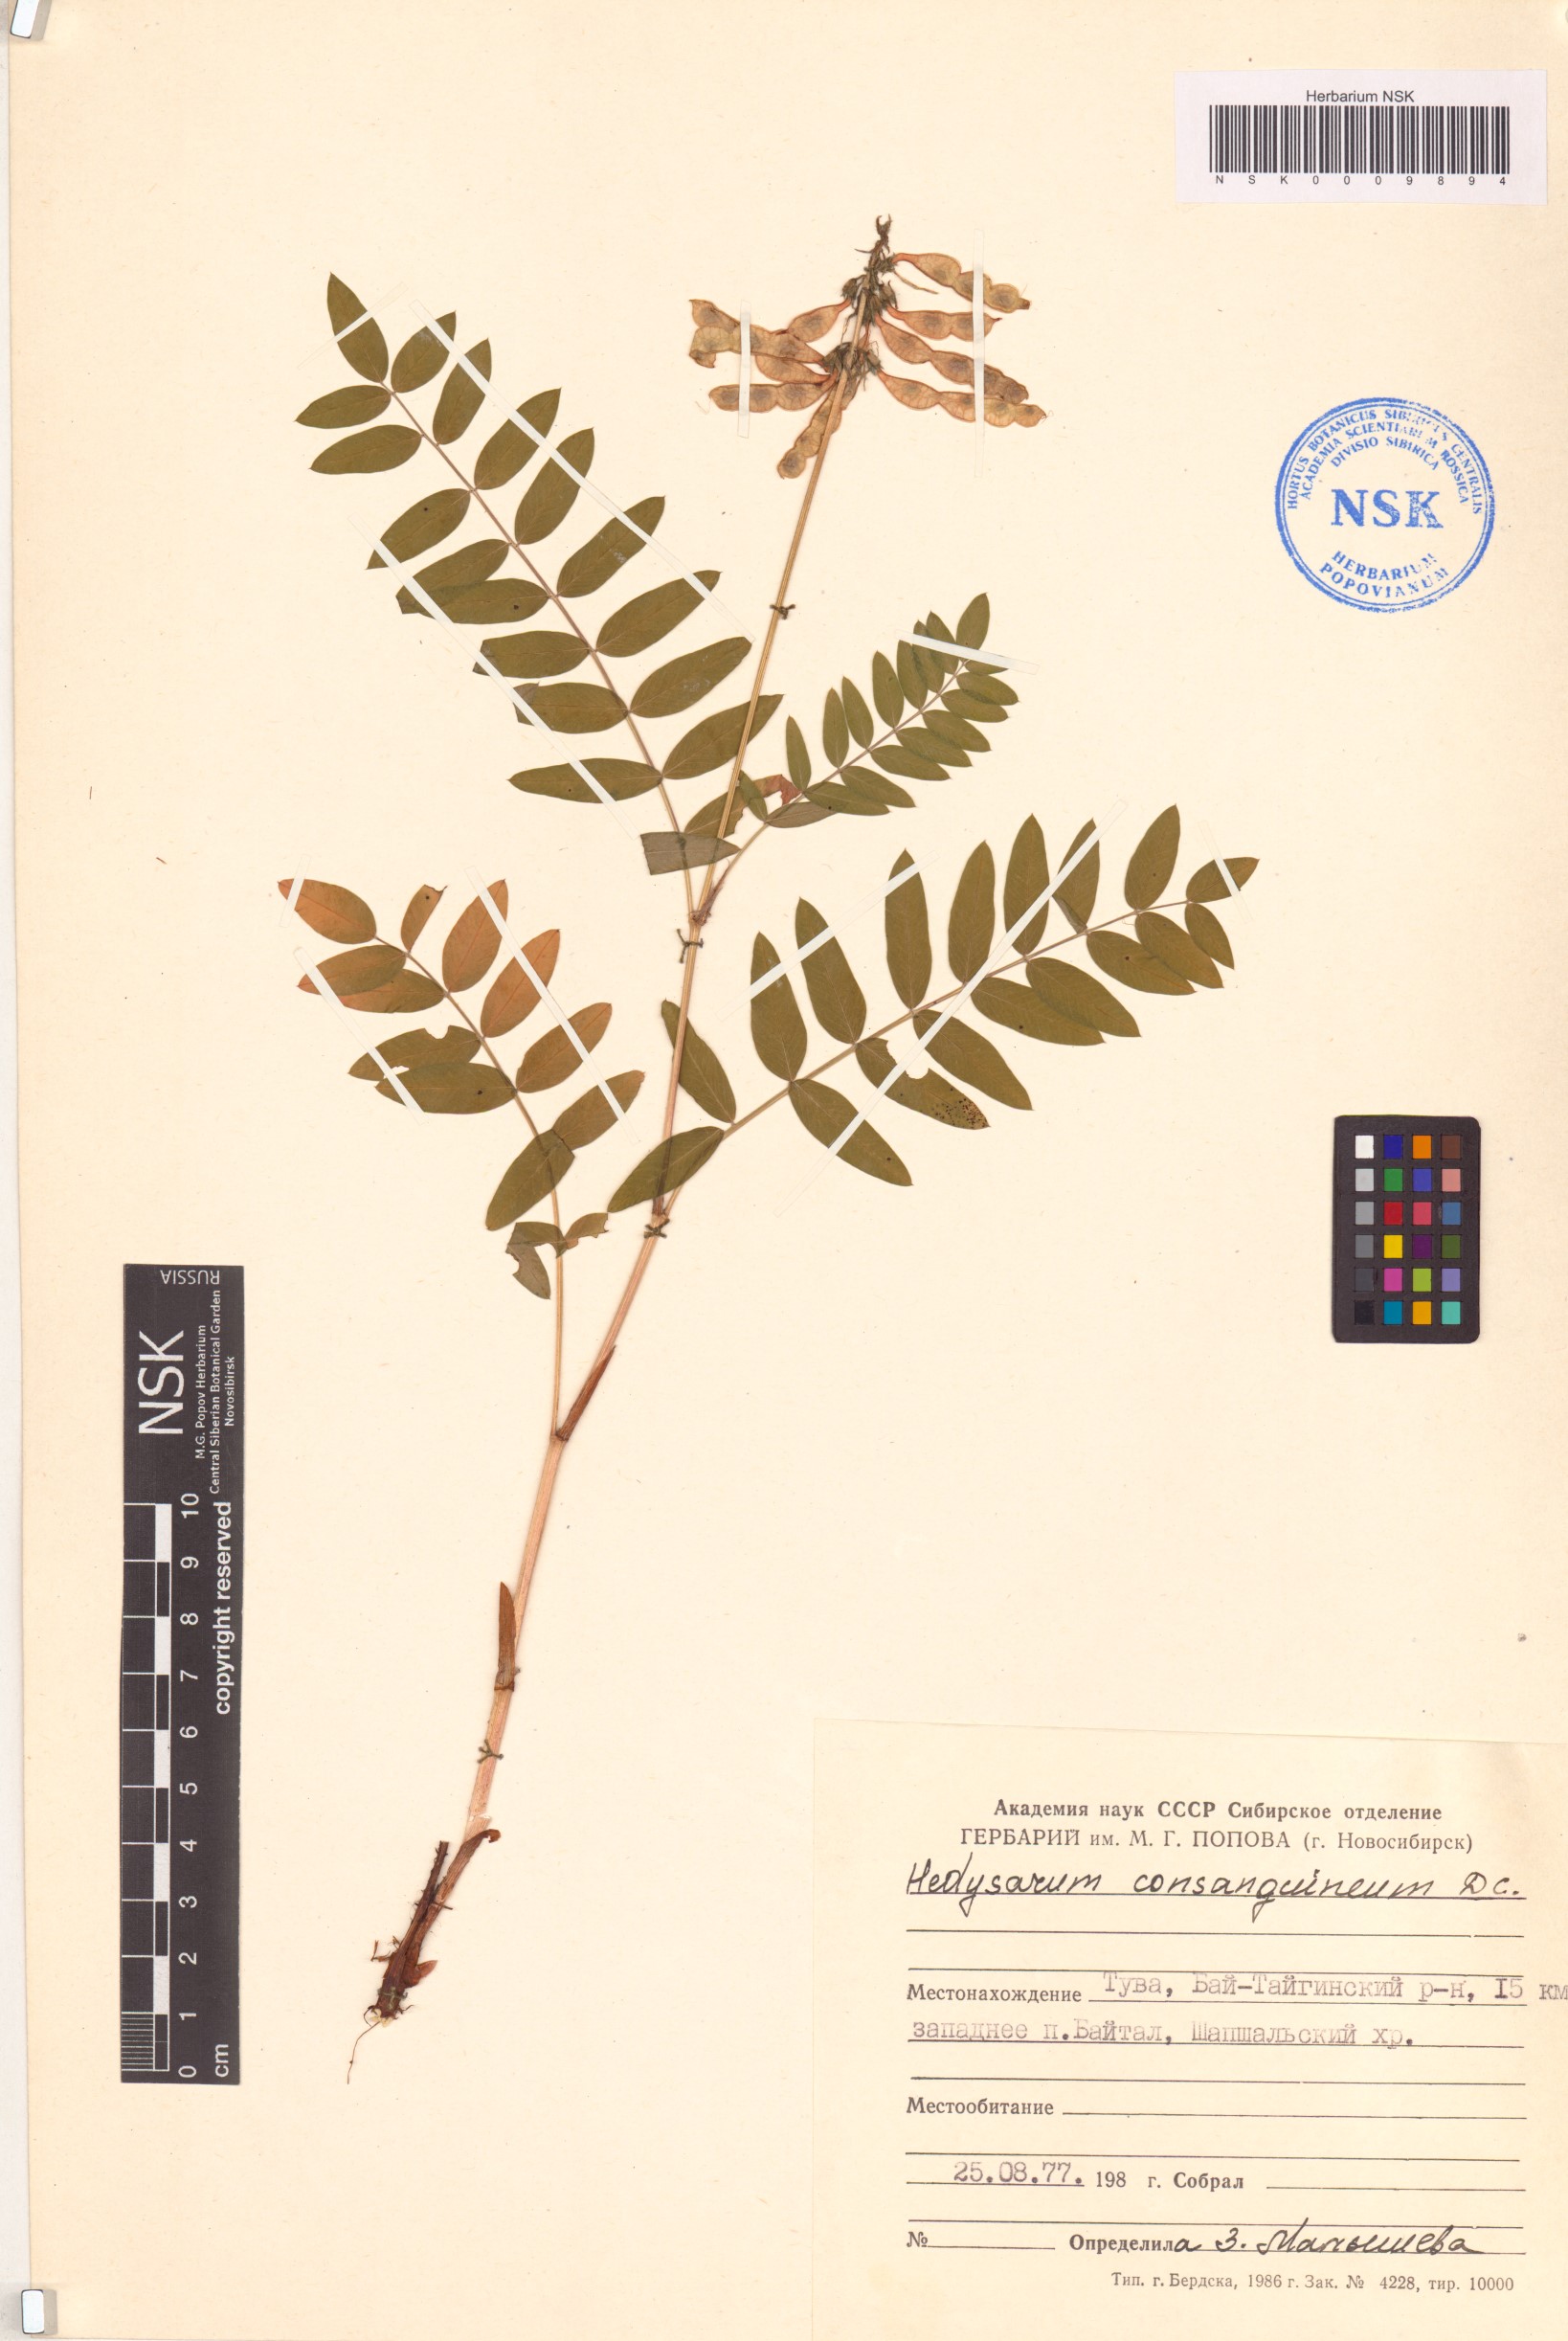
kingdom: Plantae
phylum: Tracheophyta
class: Magnoliopsida
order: Fabales
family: Fabaceae
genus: Hedysarum
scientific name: Hedysarum consanguineum
